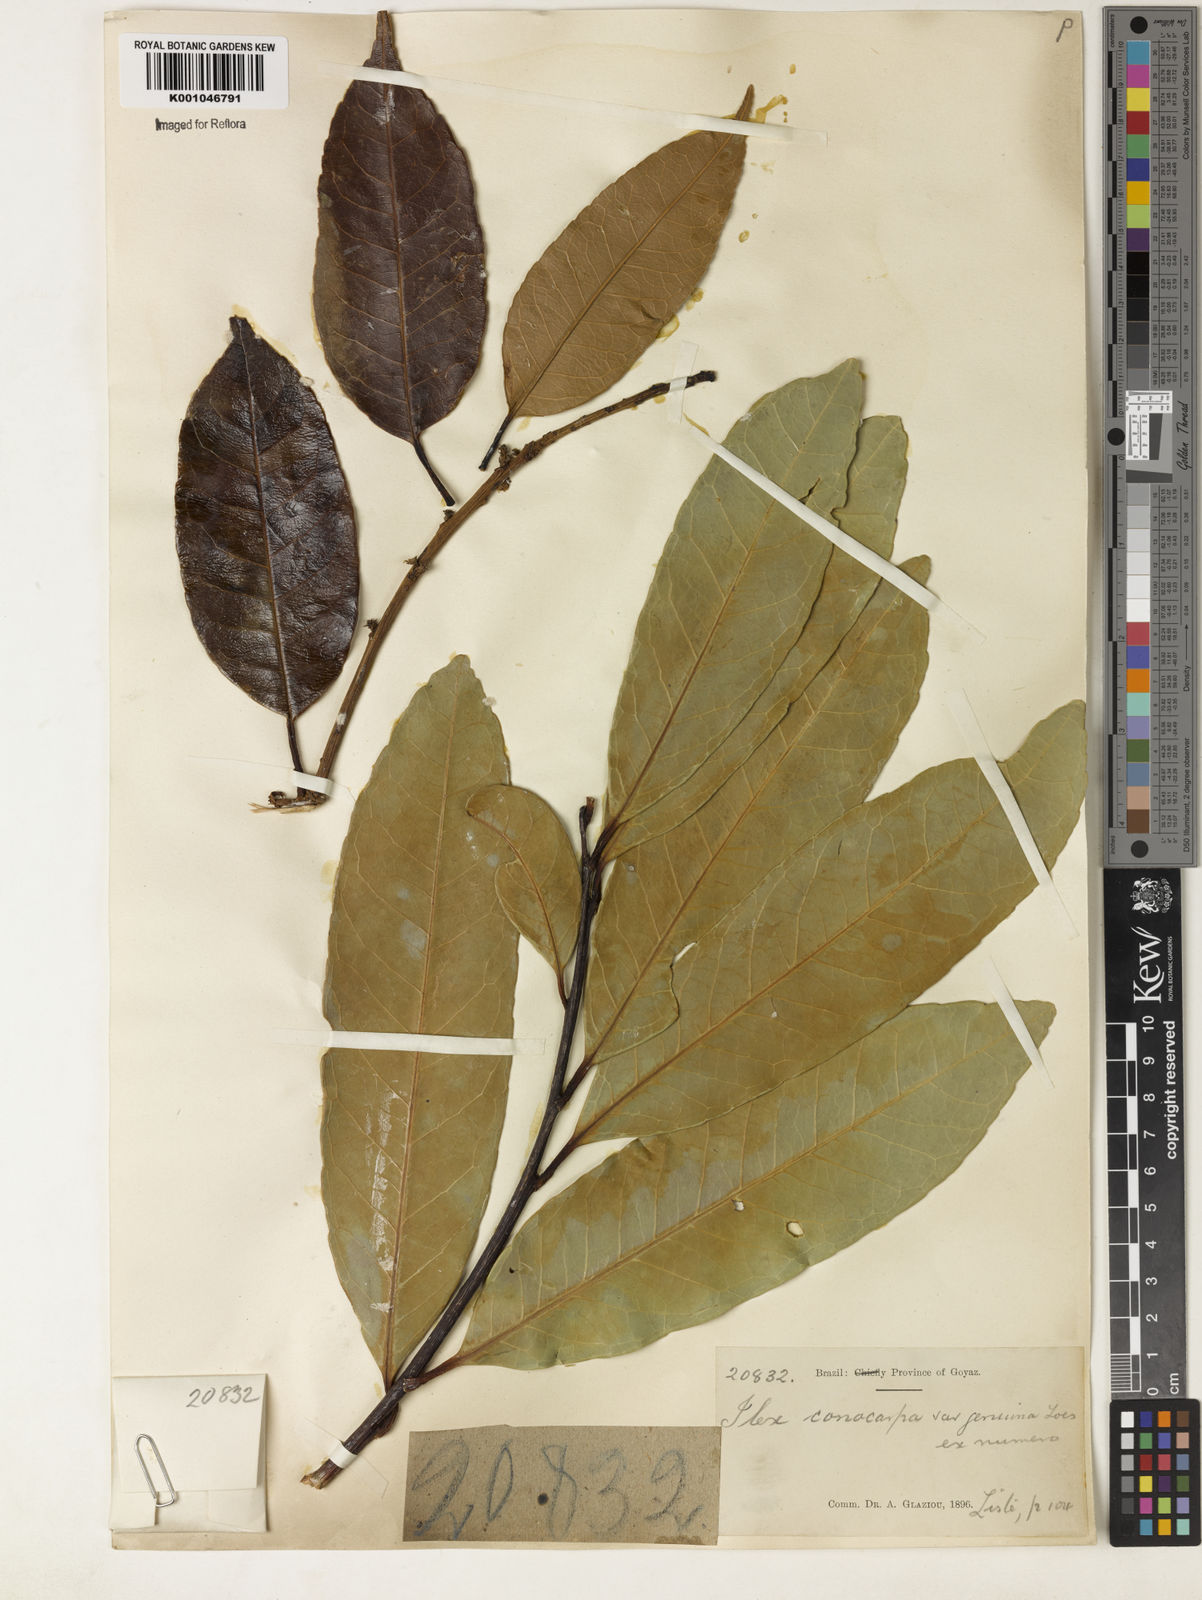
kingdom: Plantae
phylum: Tracheophyta
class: Magnoliopsida
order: Aquifoliales
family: Aquifoliaceae
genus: Ilex
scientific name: Ilex conocarpa
